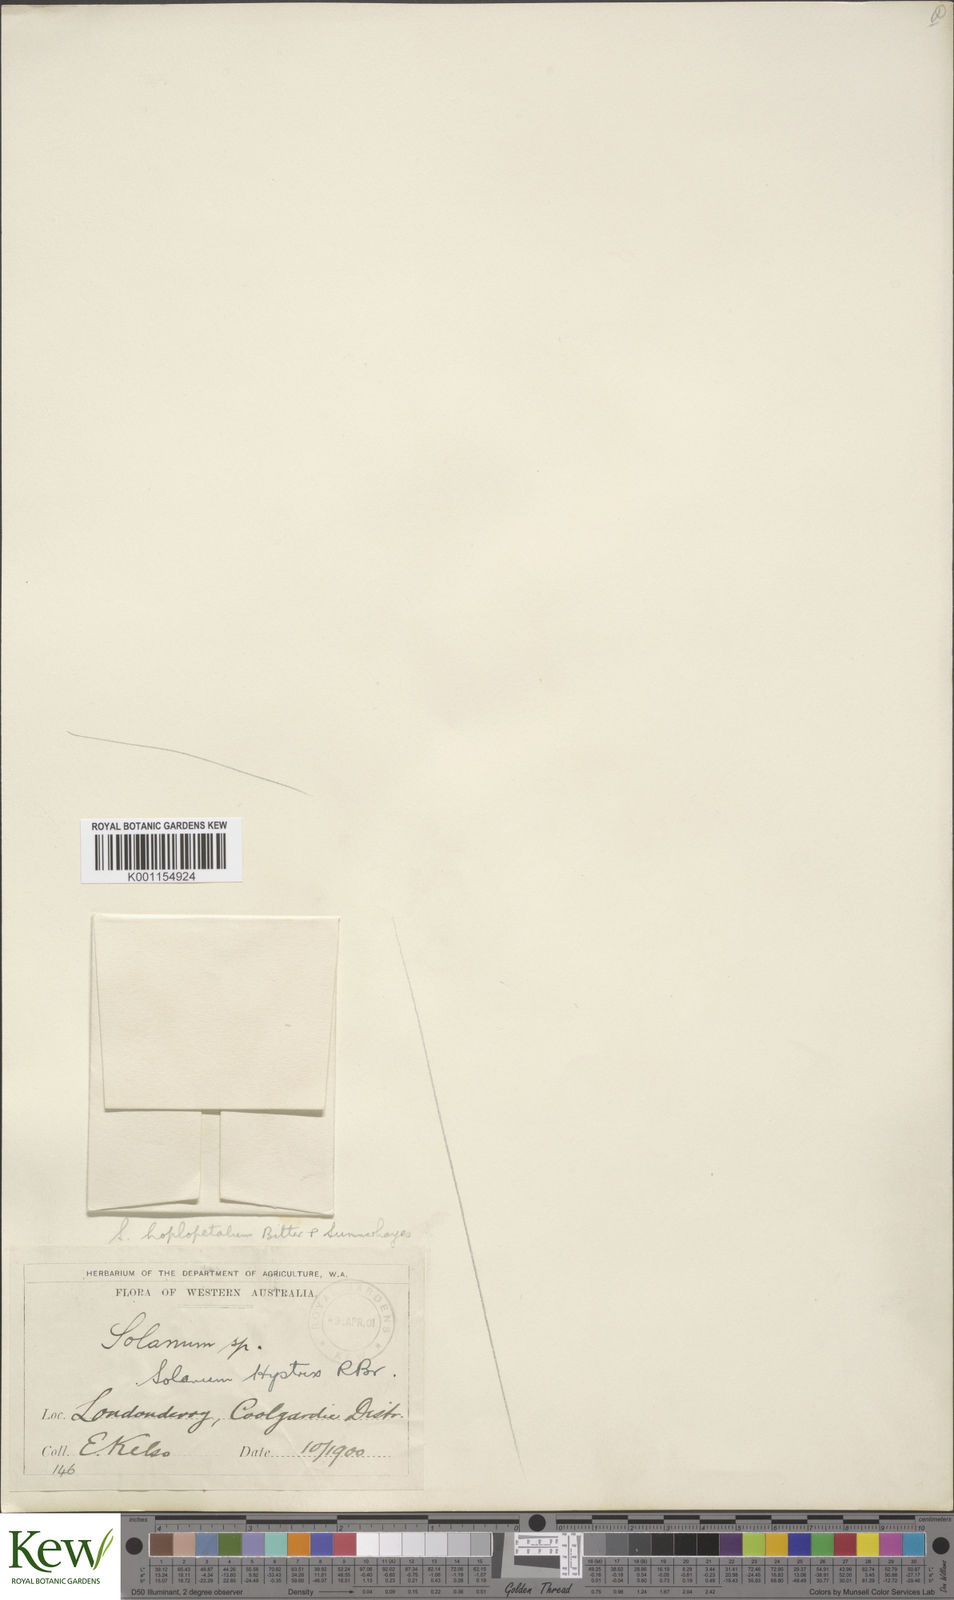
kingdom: Plantae
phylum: Tracheophyta
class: Magnoliopsida
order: Solanales
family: Solanaceae
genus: Solanum
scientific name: Solanum hoplopetalum
